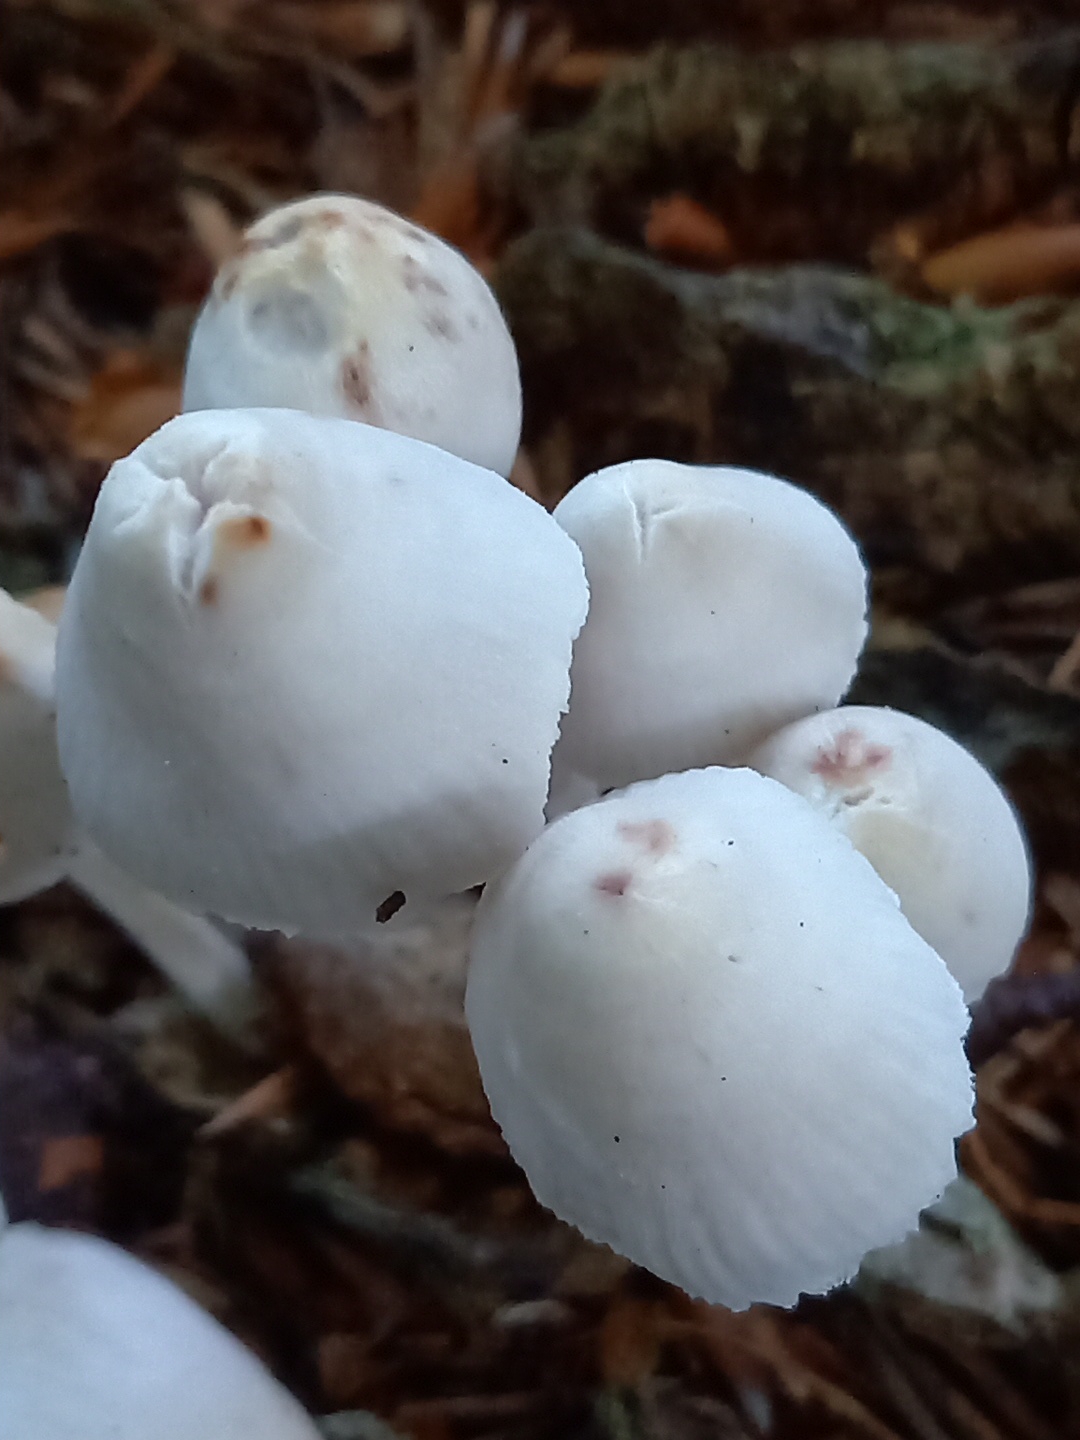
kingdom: Fungi
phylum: Basidiomycota
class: Agaricomycetes
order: Agaricales
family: Mycenaceae
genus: Mycena
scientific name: Mycena inclinata
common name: nikkende huesvamp
